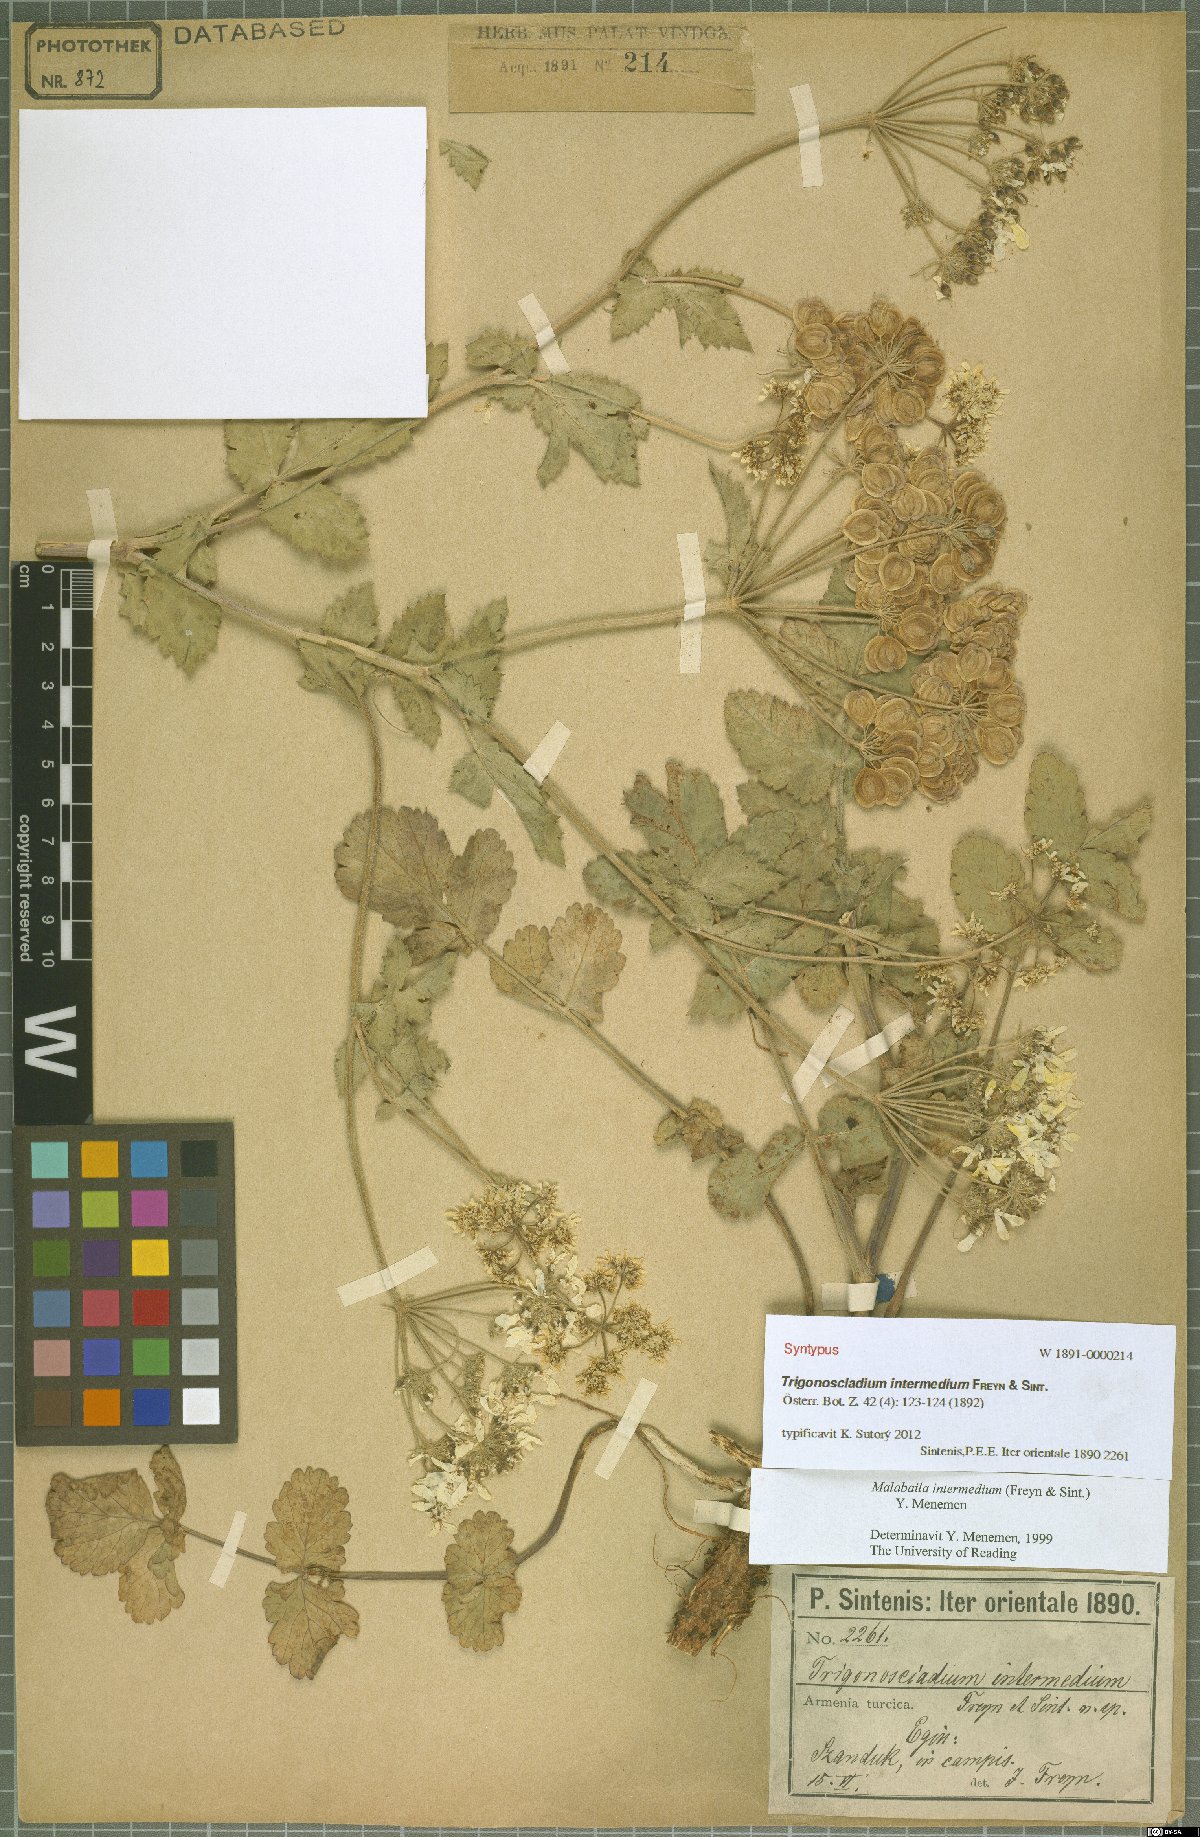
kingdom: Plantae
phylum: Tracheophyta
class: Magnoliopsida
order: Apiales
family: Apiaceae
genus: Trigonosciadium
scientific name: Trigonosciadium intermedium
